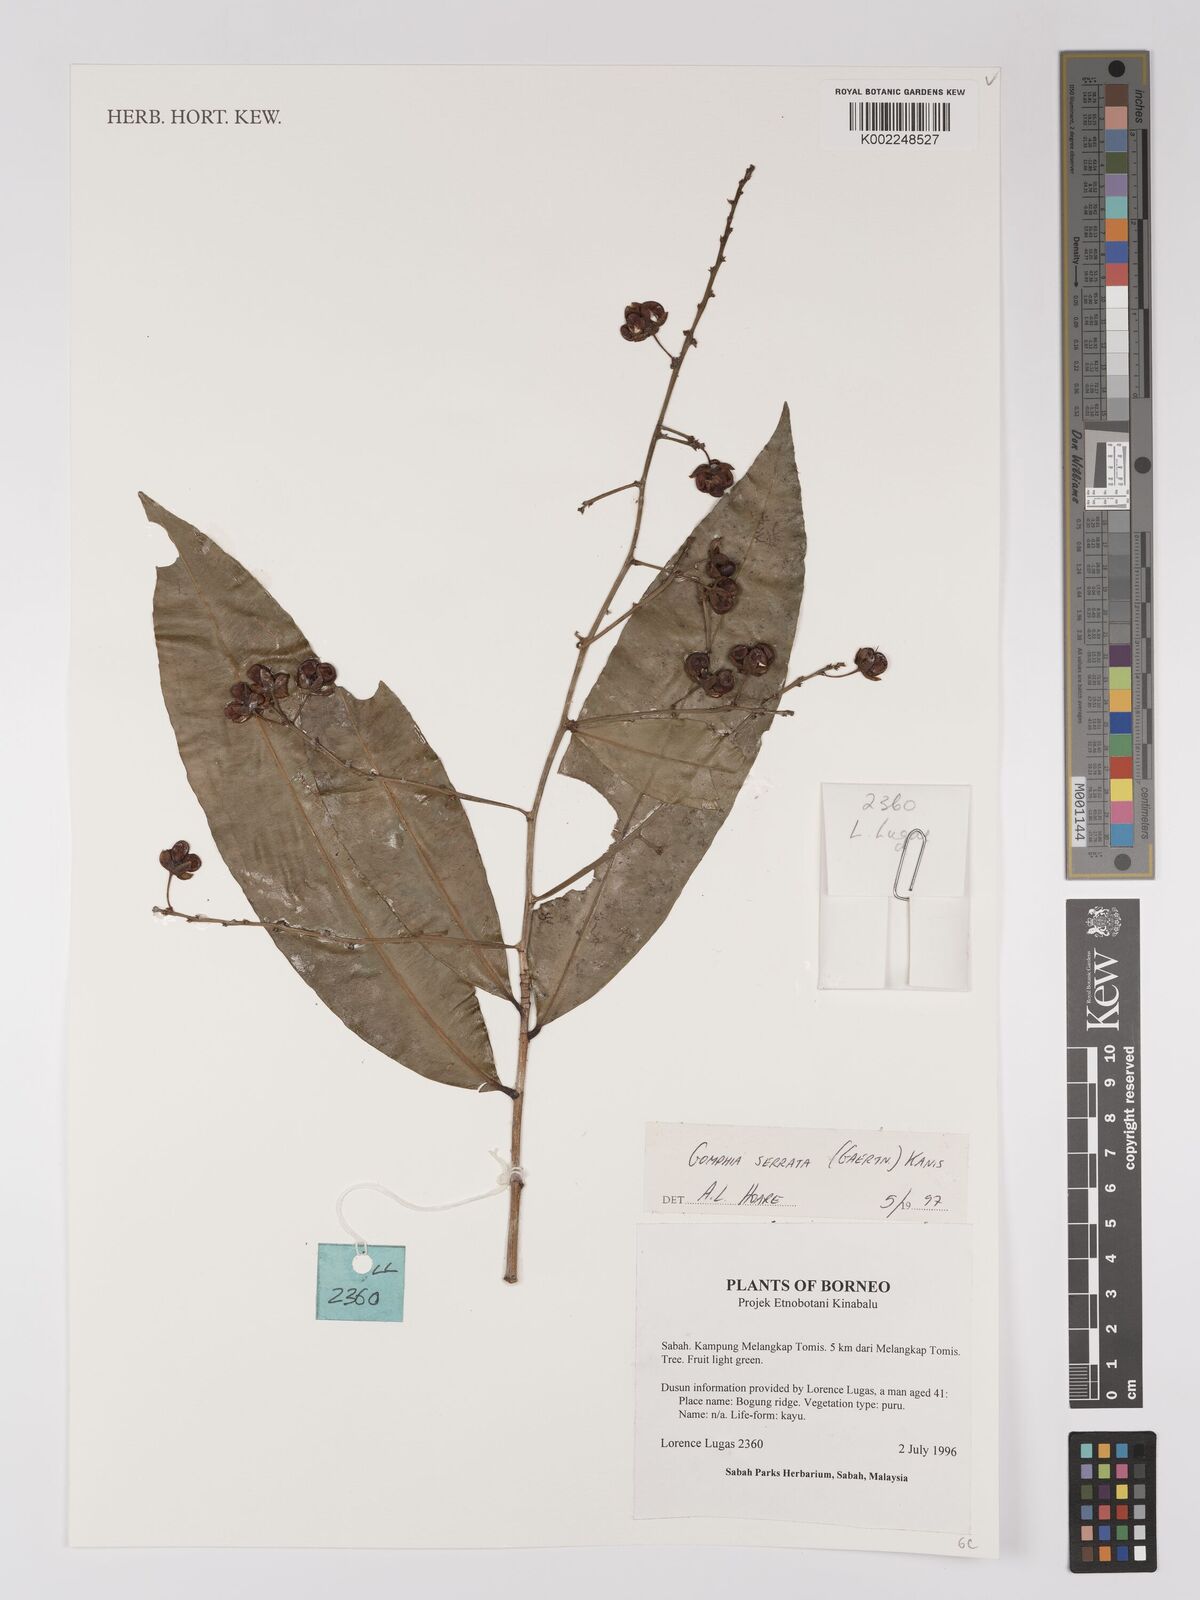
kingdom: Plantae
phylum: Tracheophyta
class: Magnoliopsida
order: Malpighiales
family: Ochnaceae
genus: Gomphia
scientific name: Gomphia serrata
